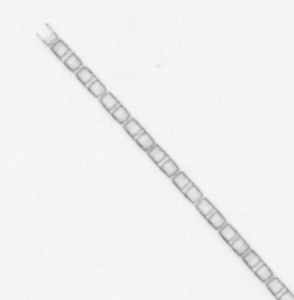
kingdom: Chromista
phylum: Ochrophyta
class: Bacillariophyceae
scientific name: Bacillariophyceae
